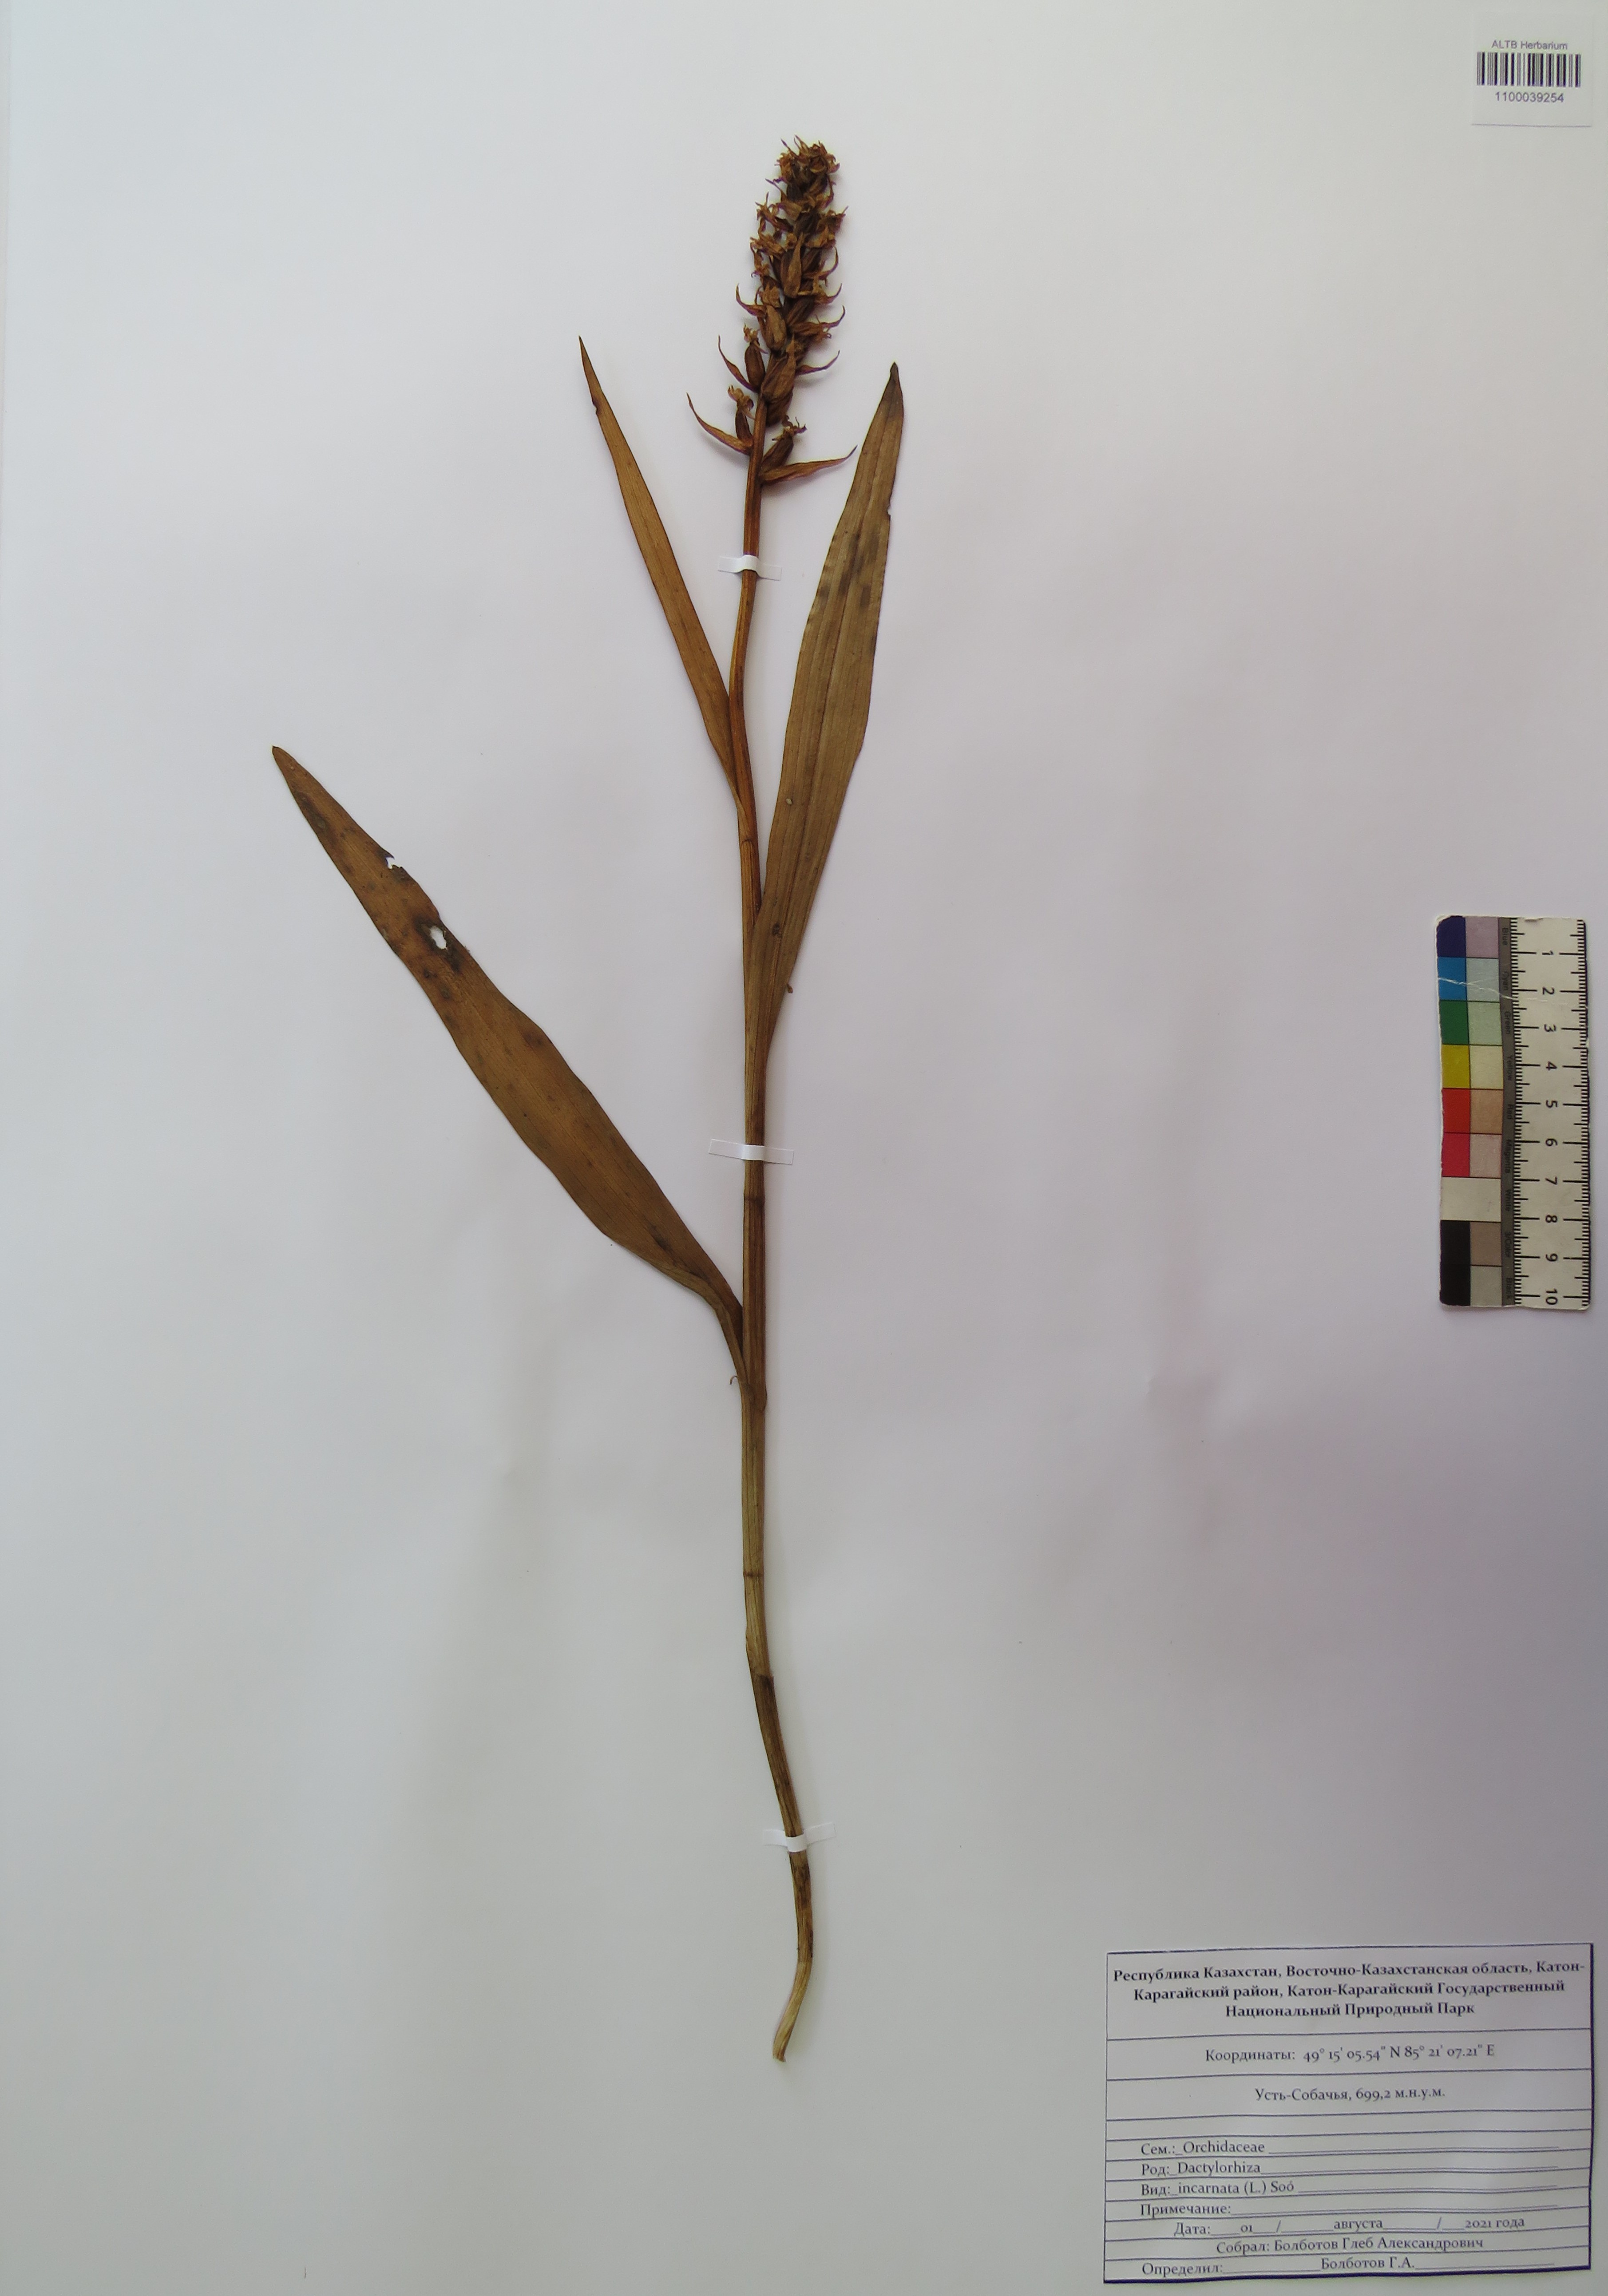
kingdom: Plantae
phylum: Tracheophyta
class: Liliopsida
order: Asparagales
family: Orchidaceae
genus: Dactylorhiza
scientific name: Dactylorhiza incarnata
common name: Early marsh-orchid
